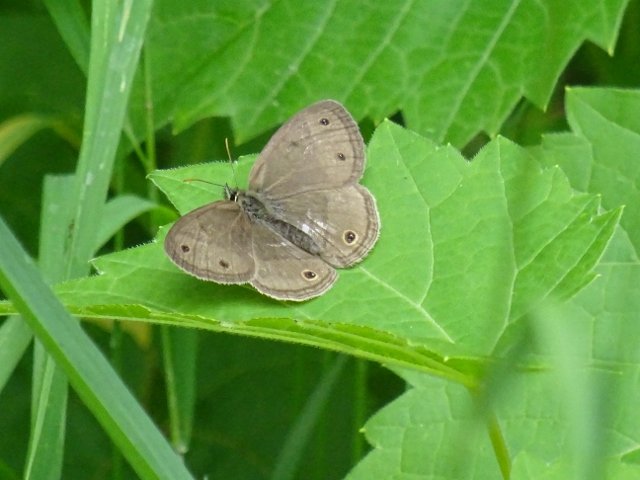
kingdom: Animalia
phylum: Arthropoda
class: Insecta
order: Lepidoptera
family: Nymphalidae
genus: Euptychia
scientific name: Euptychia cymela
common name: Little Wood Satyr
